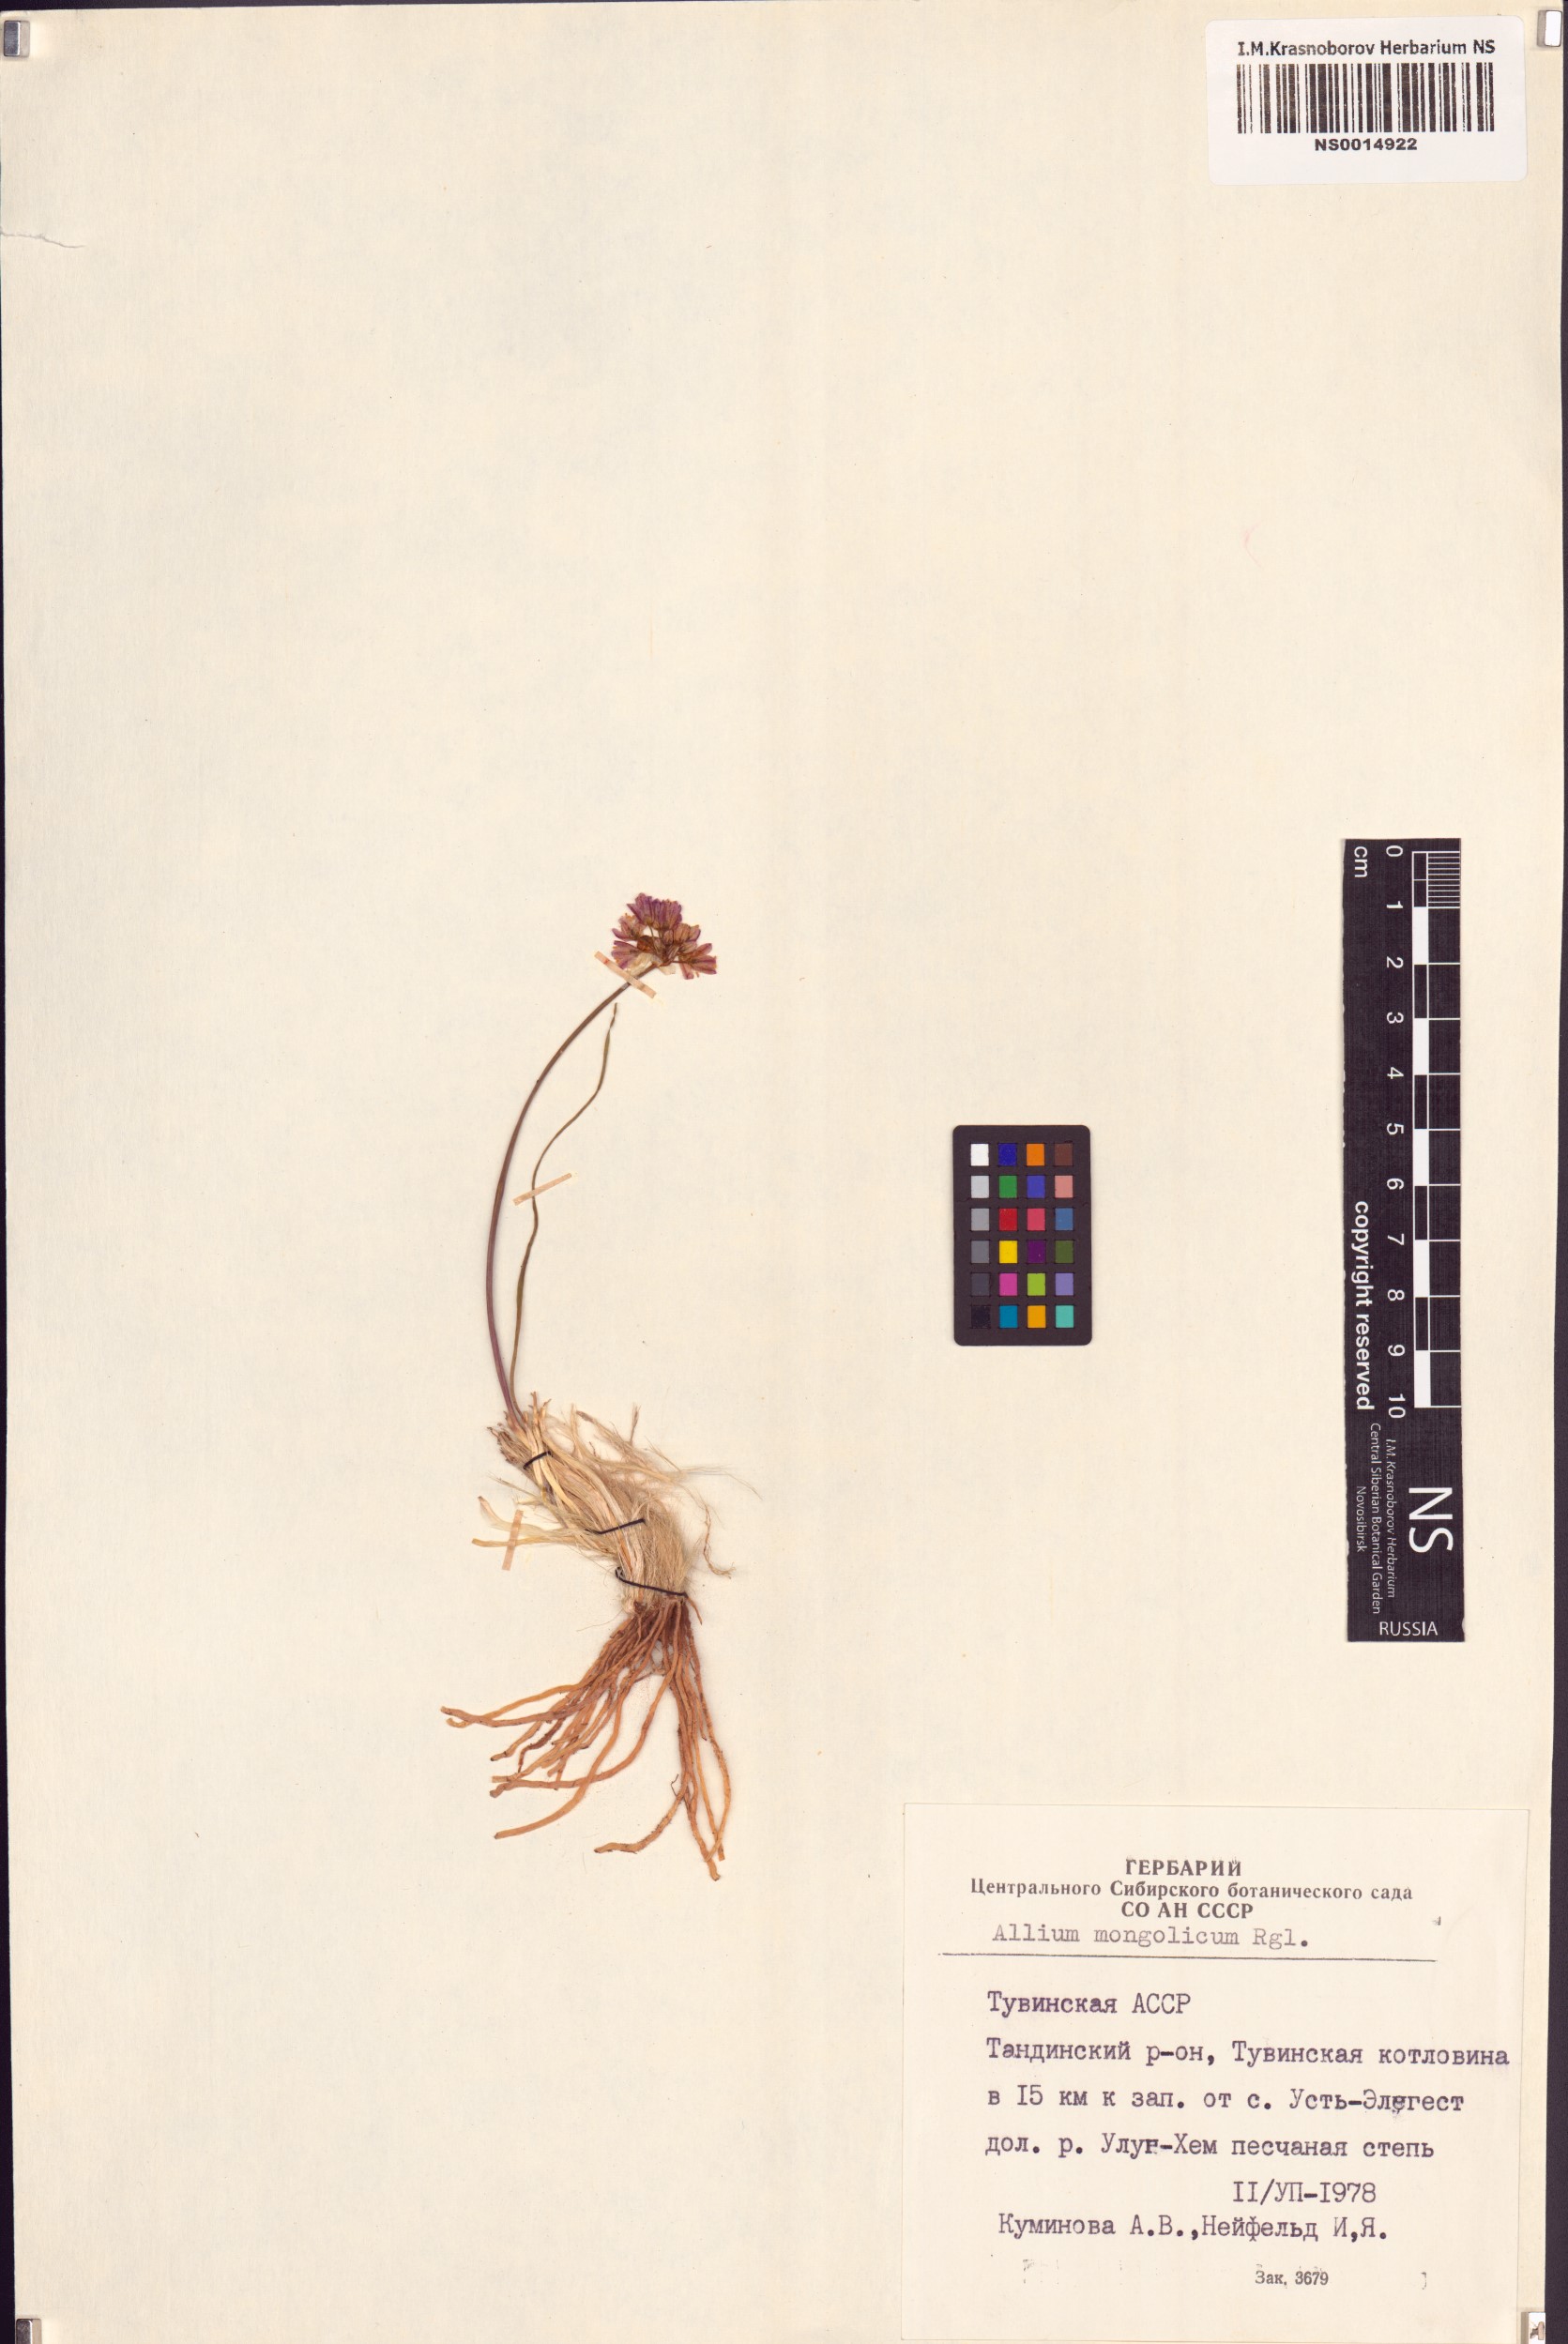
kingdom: Plantae
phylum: Tracheophyta
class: Liliopsida
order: Asparagales
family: Amaryllidaceae
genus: Allium
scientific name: Allium mongolicum
